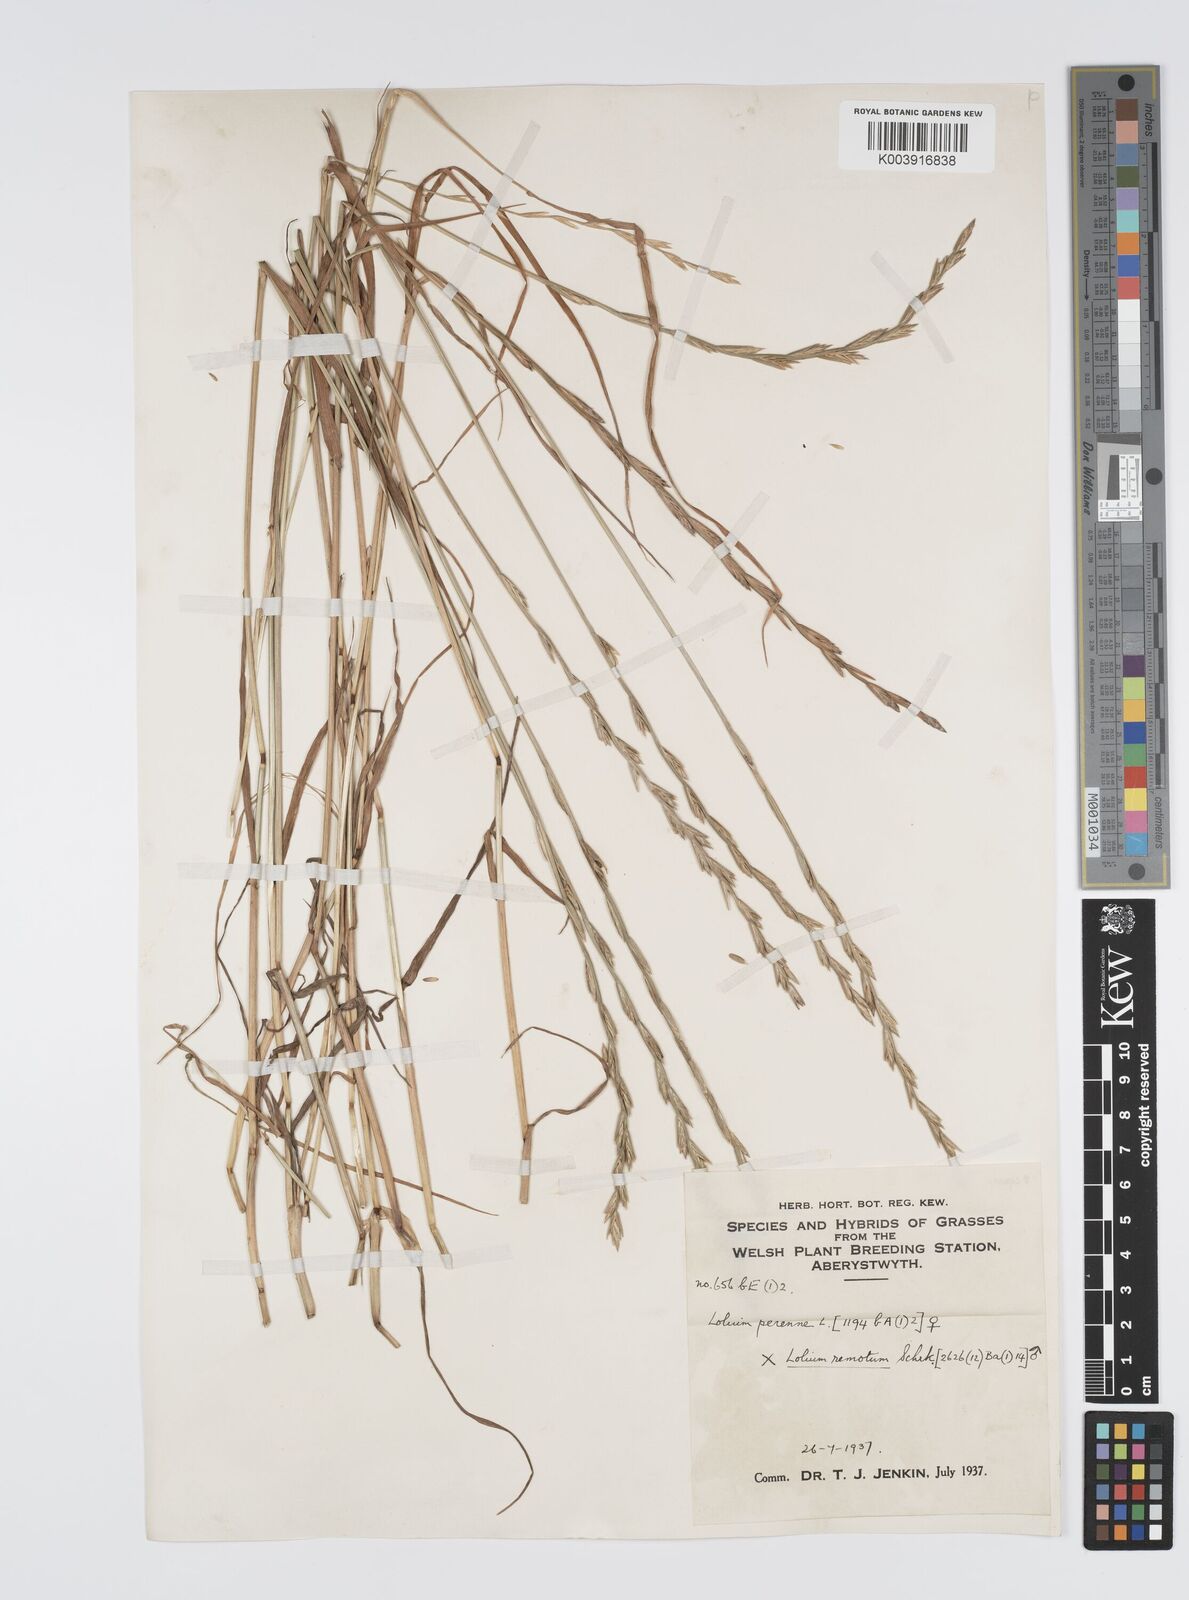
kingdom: Plantae
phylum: Tracheophyta
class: Liliopsida
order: Poales
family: Poaceae
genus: Lolium
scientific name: Lolium perenne
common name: Perennial ryegrass
